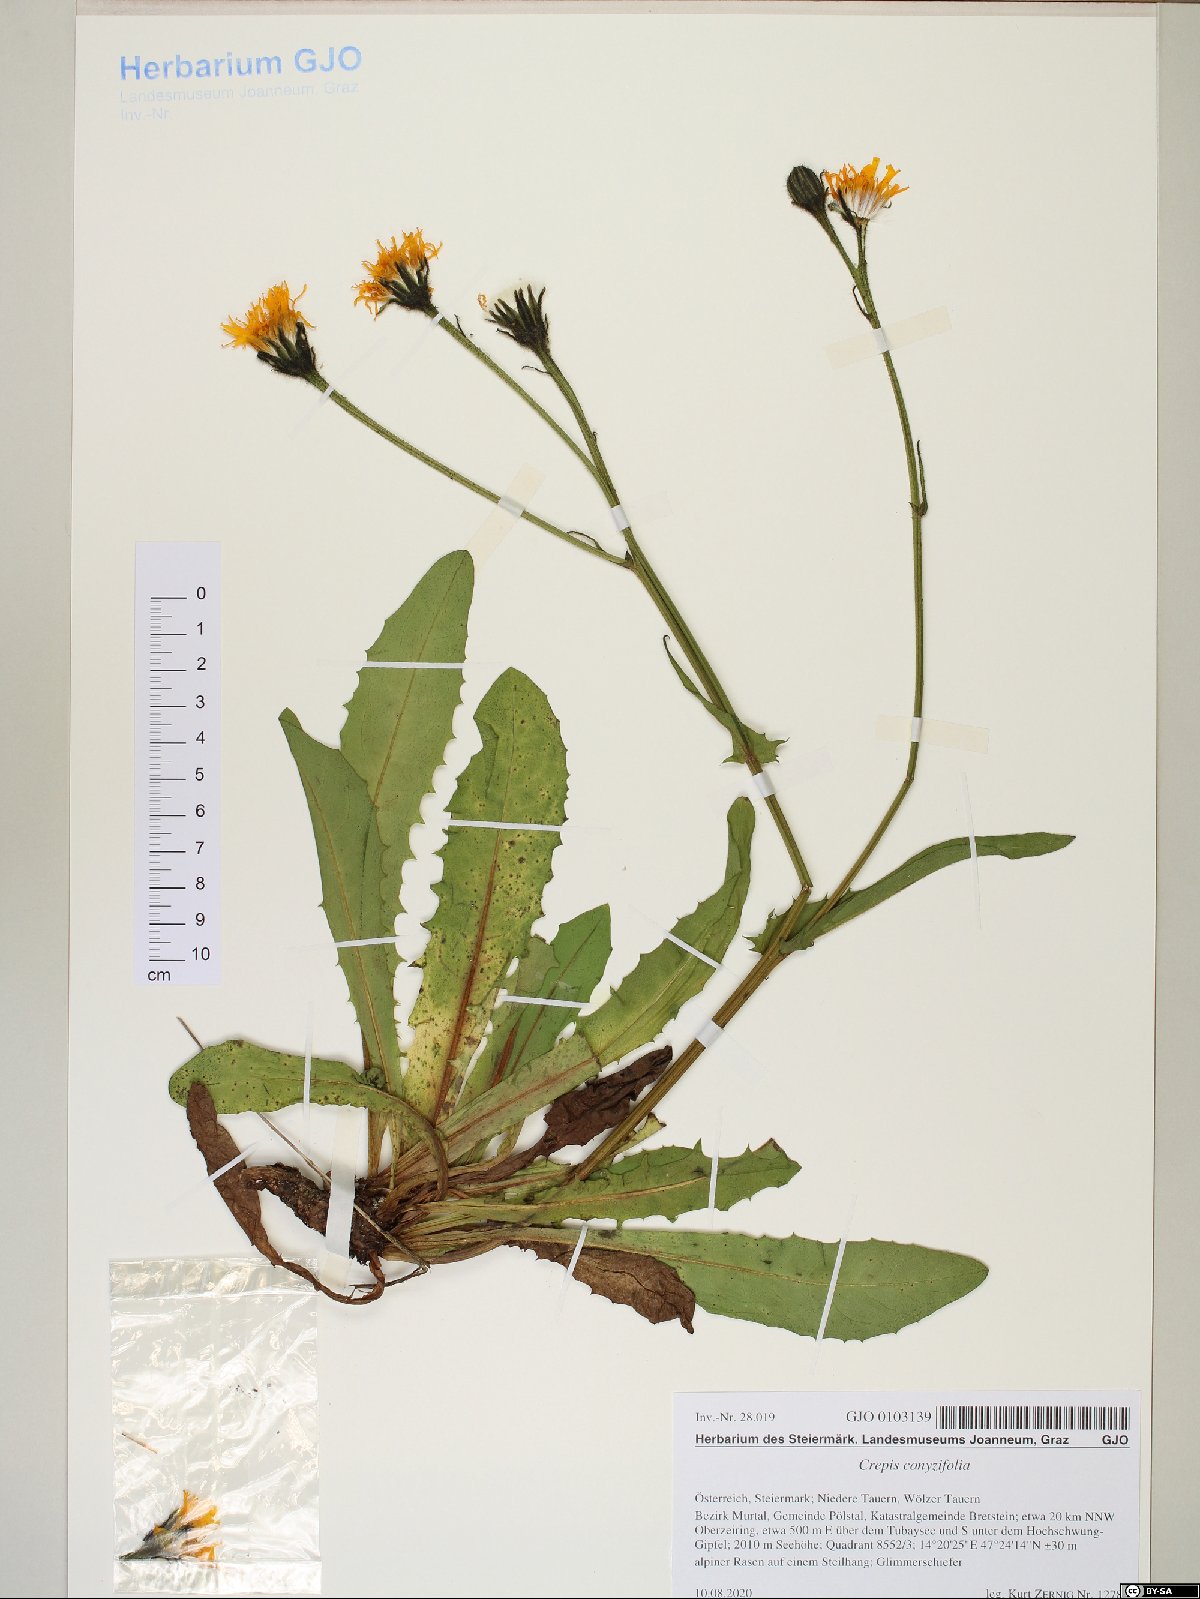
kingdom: Plantae
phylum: Tracheophyta
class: Magnoliopsida
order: Asterales
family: Asteraceae
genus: Crepis
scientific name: Crepis blattarioides
